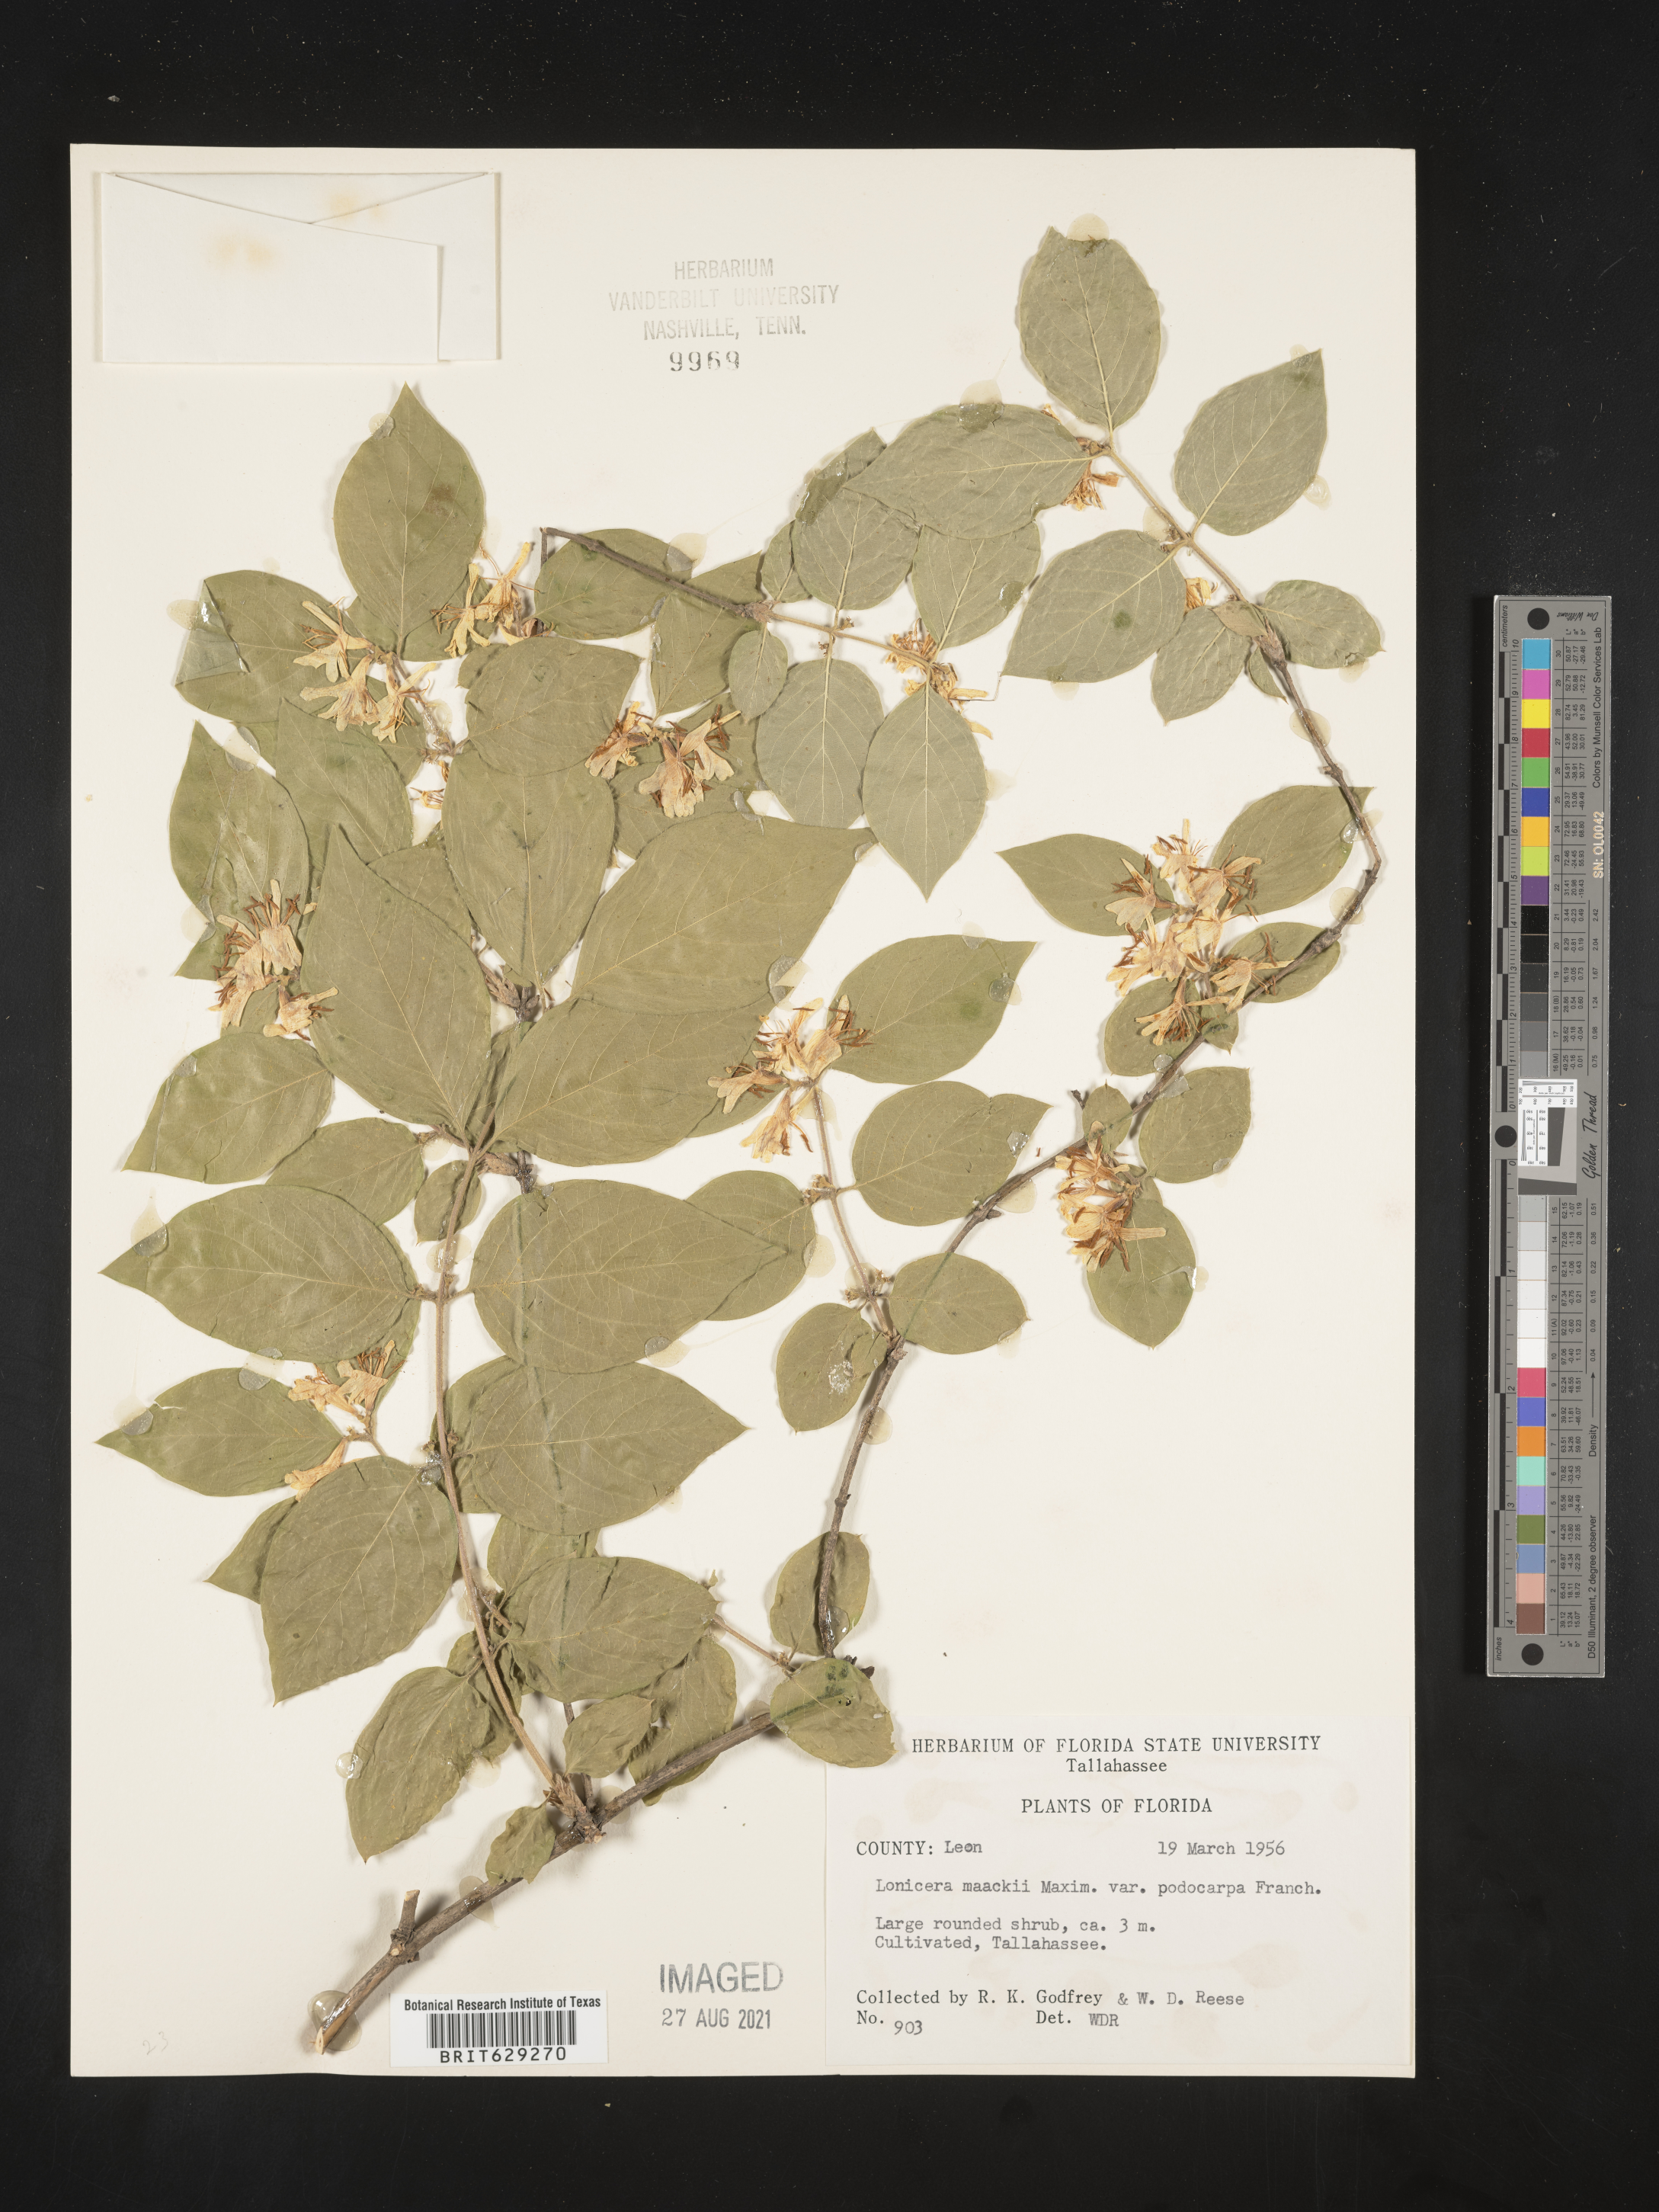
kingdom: Plantae
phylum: Tracheophyta
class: Magnoliopsida
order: Dipsacales
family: Caprifoliaceae
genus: Lonicera
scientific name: Lonicera maackii
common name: Amur honeysuckle
